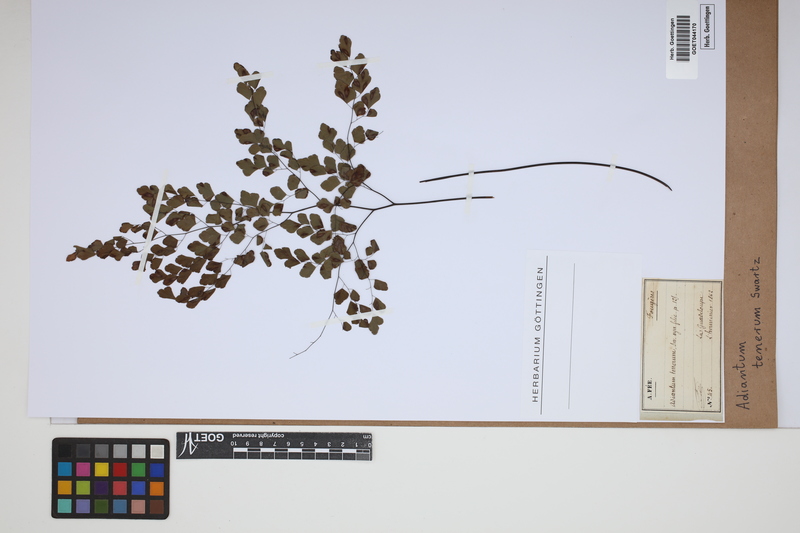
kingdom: Plantae
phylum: Tracheophyta
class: Polypodiopsida
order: Polypodiales
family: Pteridaceae
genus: Adiantum
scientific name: Adiantum tenerum
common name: Fan maidenhair
